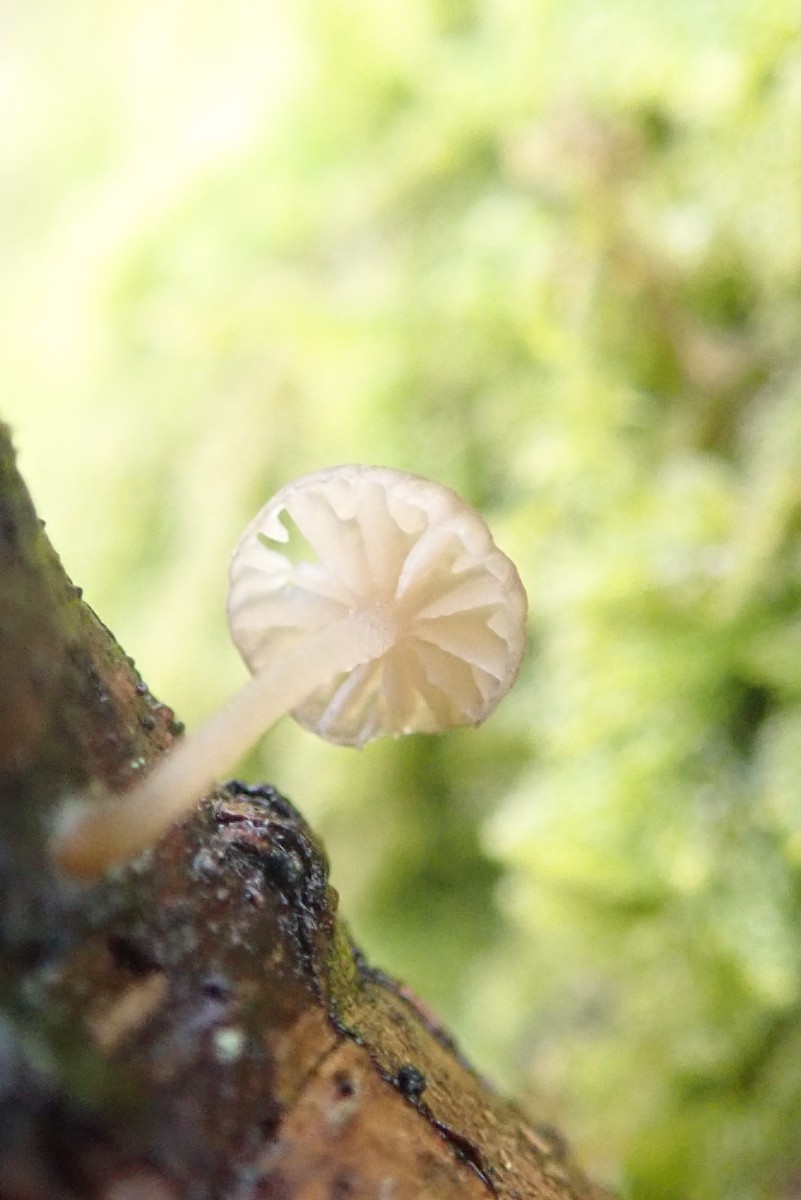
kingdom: Fungi
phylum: Basidiomycota
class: Agaricomycetes
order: Agaricales
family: Porotheleaceae
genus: Phloeomana
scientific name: Phloeomana speirea
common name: kvist-huesvamp
